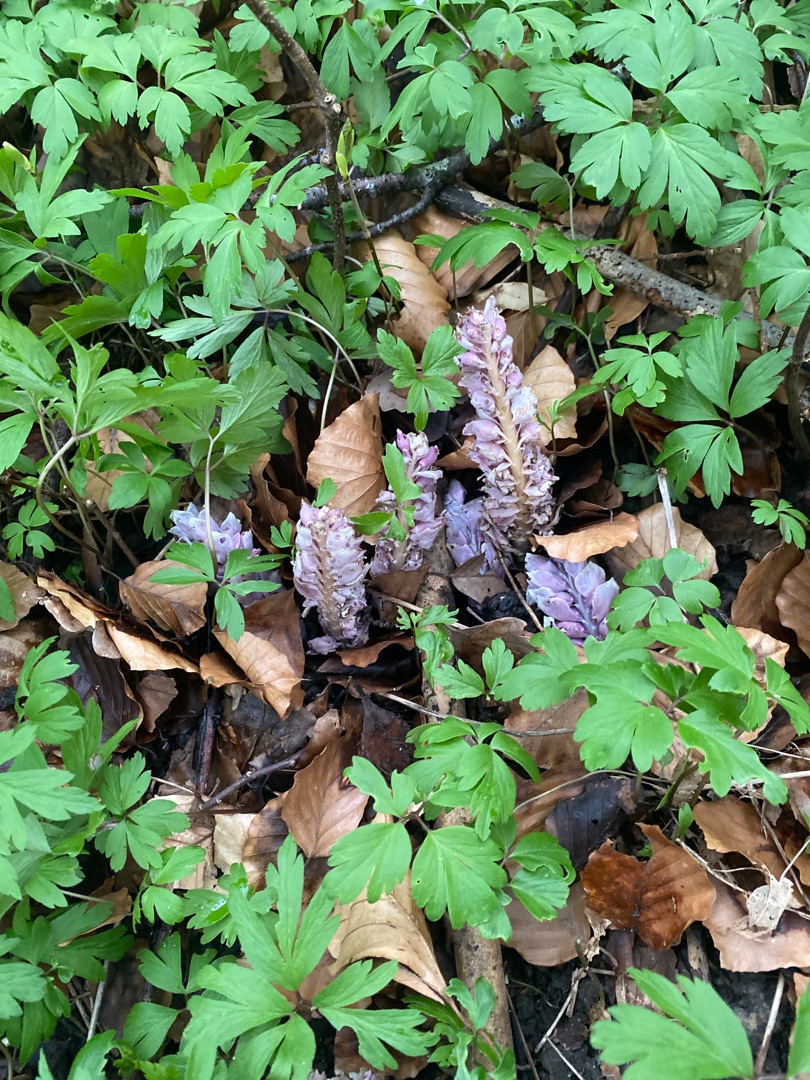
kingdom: Plantae
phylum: Tracheophyta
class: Magnoliopsida
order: Lamiales
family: Orobanchaceae
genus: Lathraea
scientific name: Lathraea squamaria
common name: Skælrod
